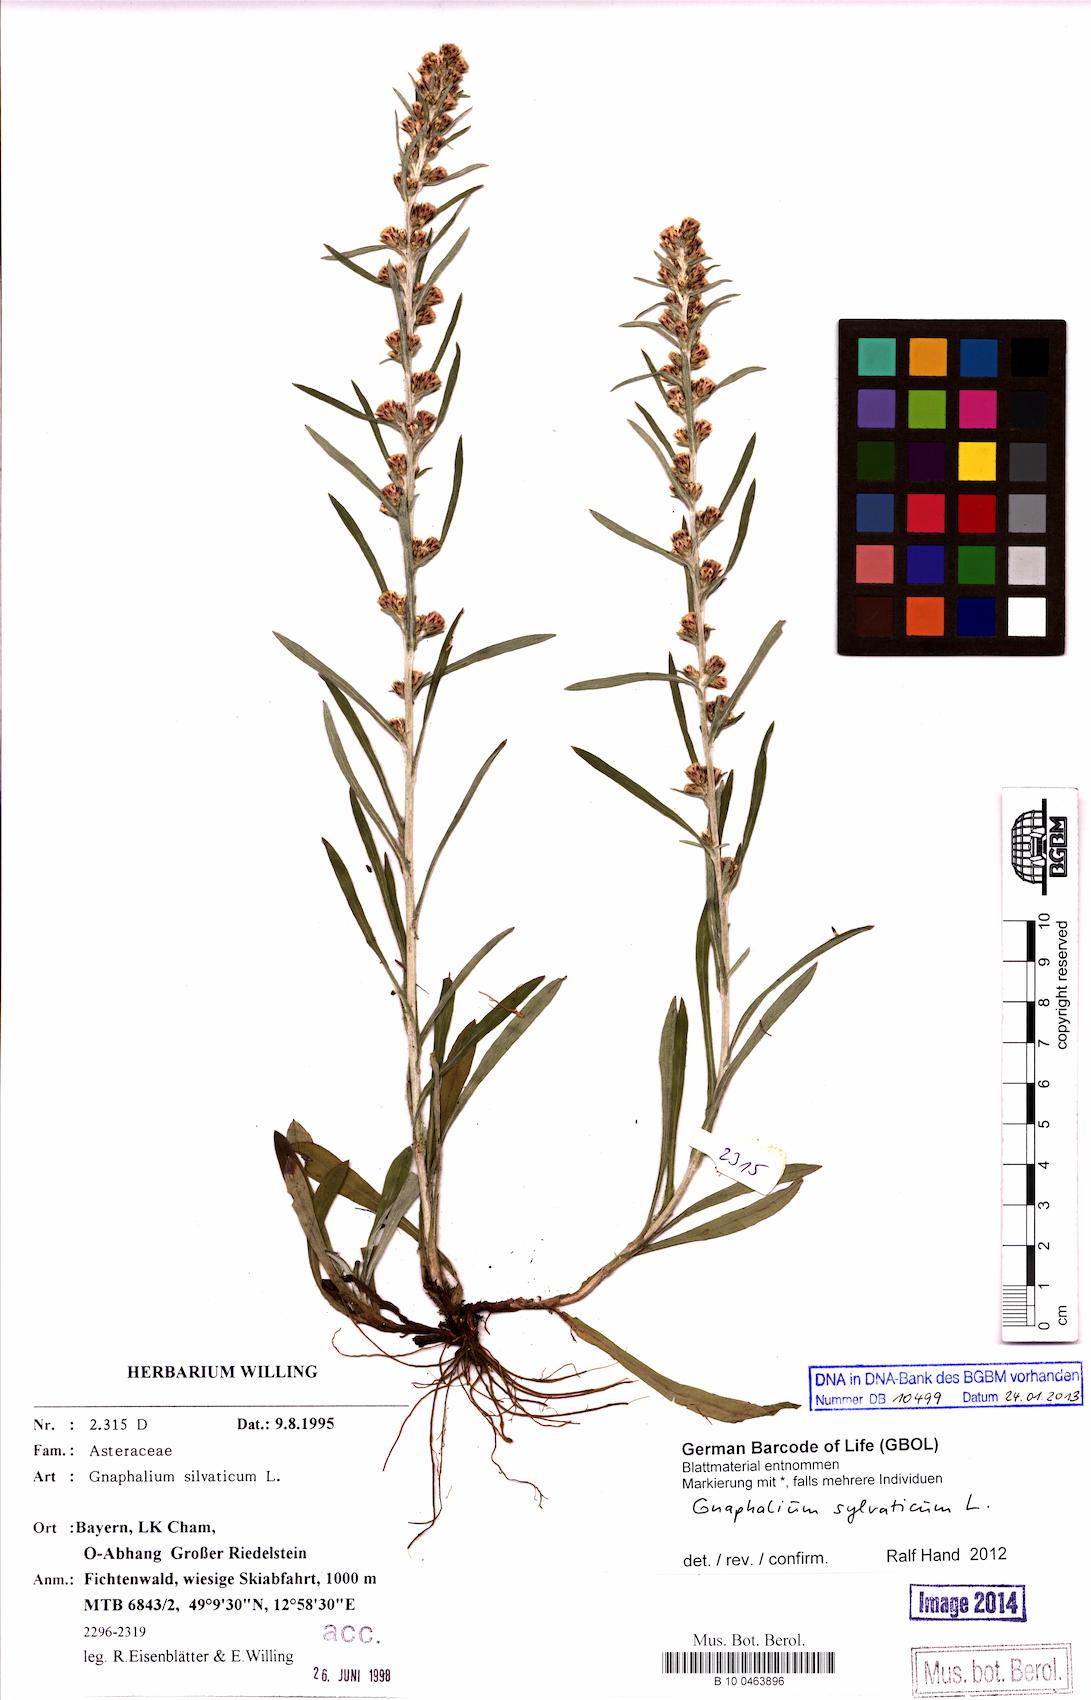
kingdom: Plantae
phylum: Tracheophyta
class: Magnoliopsida
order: Asterales
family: Asteraceae
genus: Omalotheca
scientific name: Omalotheca sylvatica
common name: Heath cudweed
